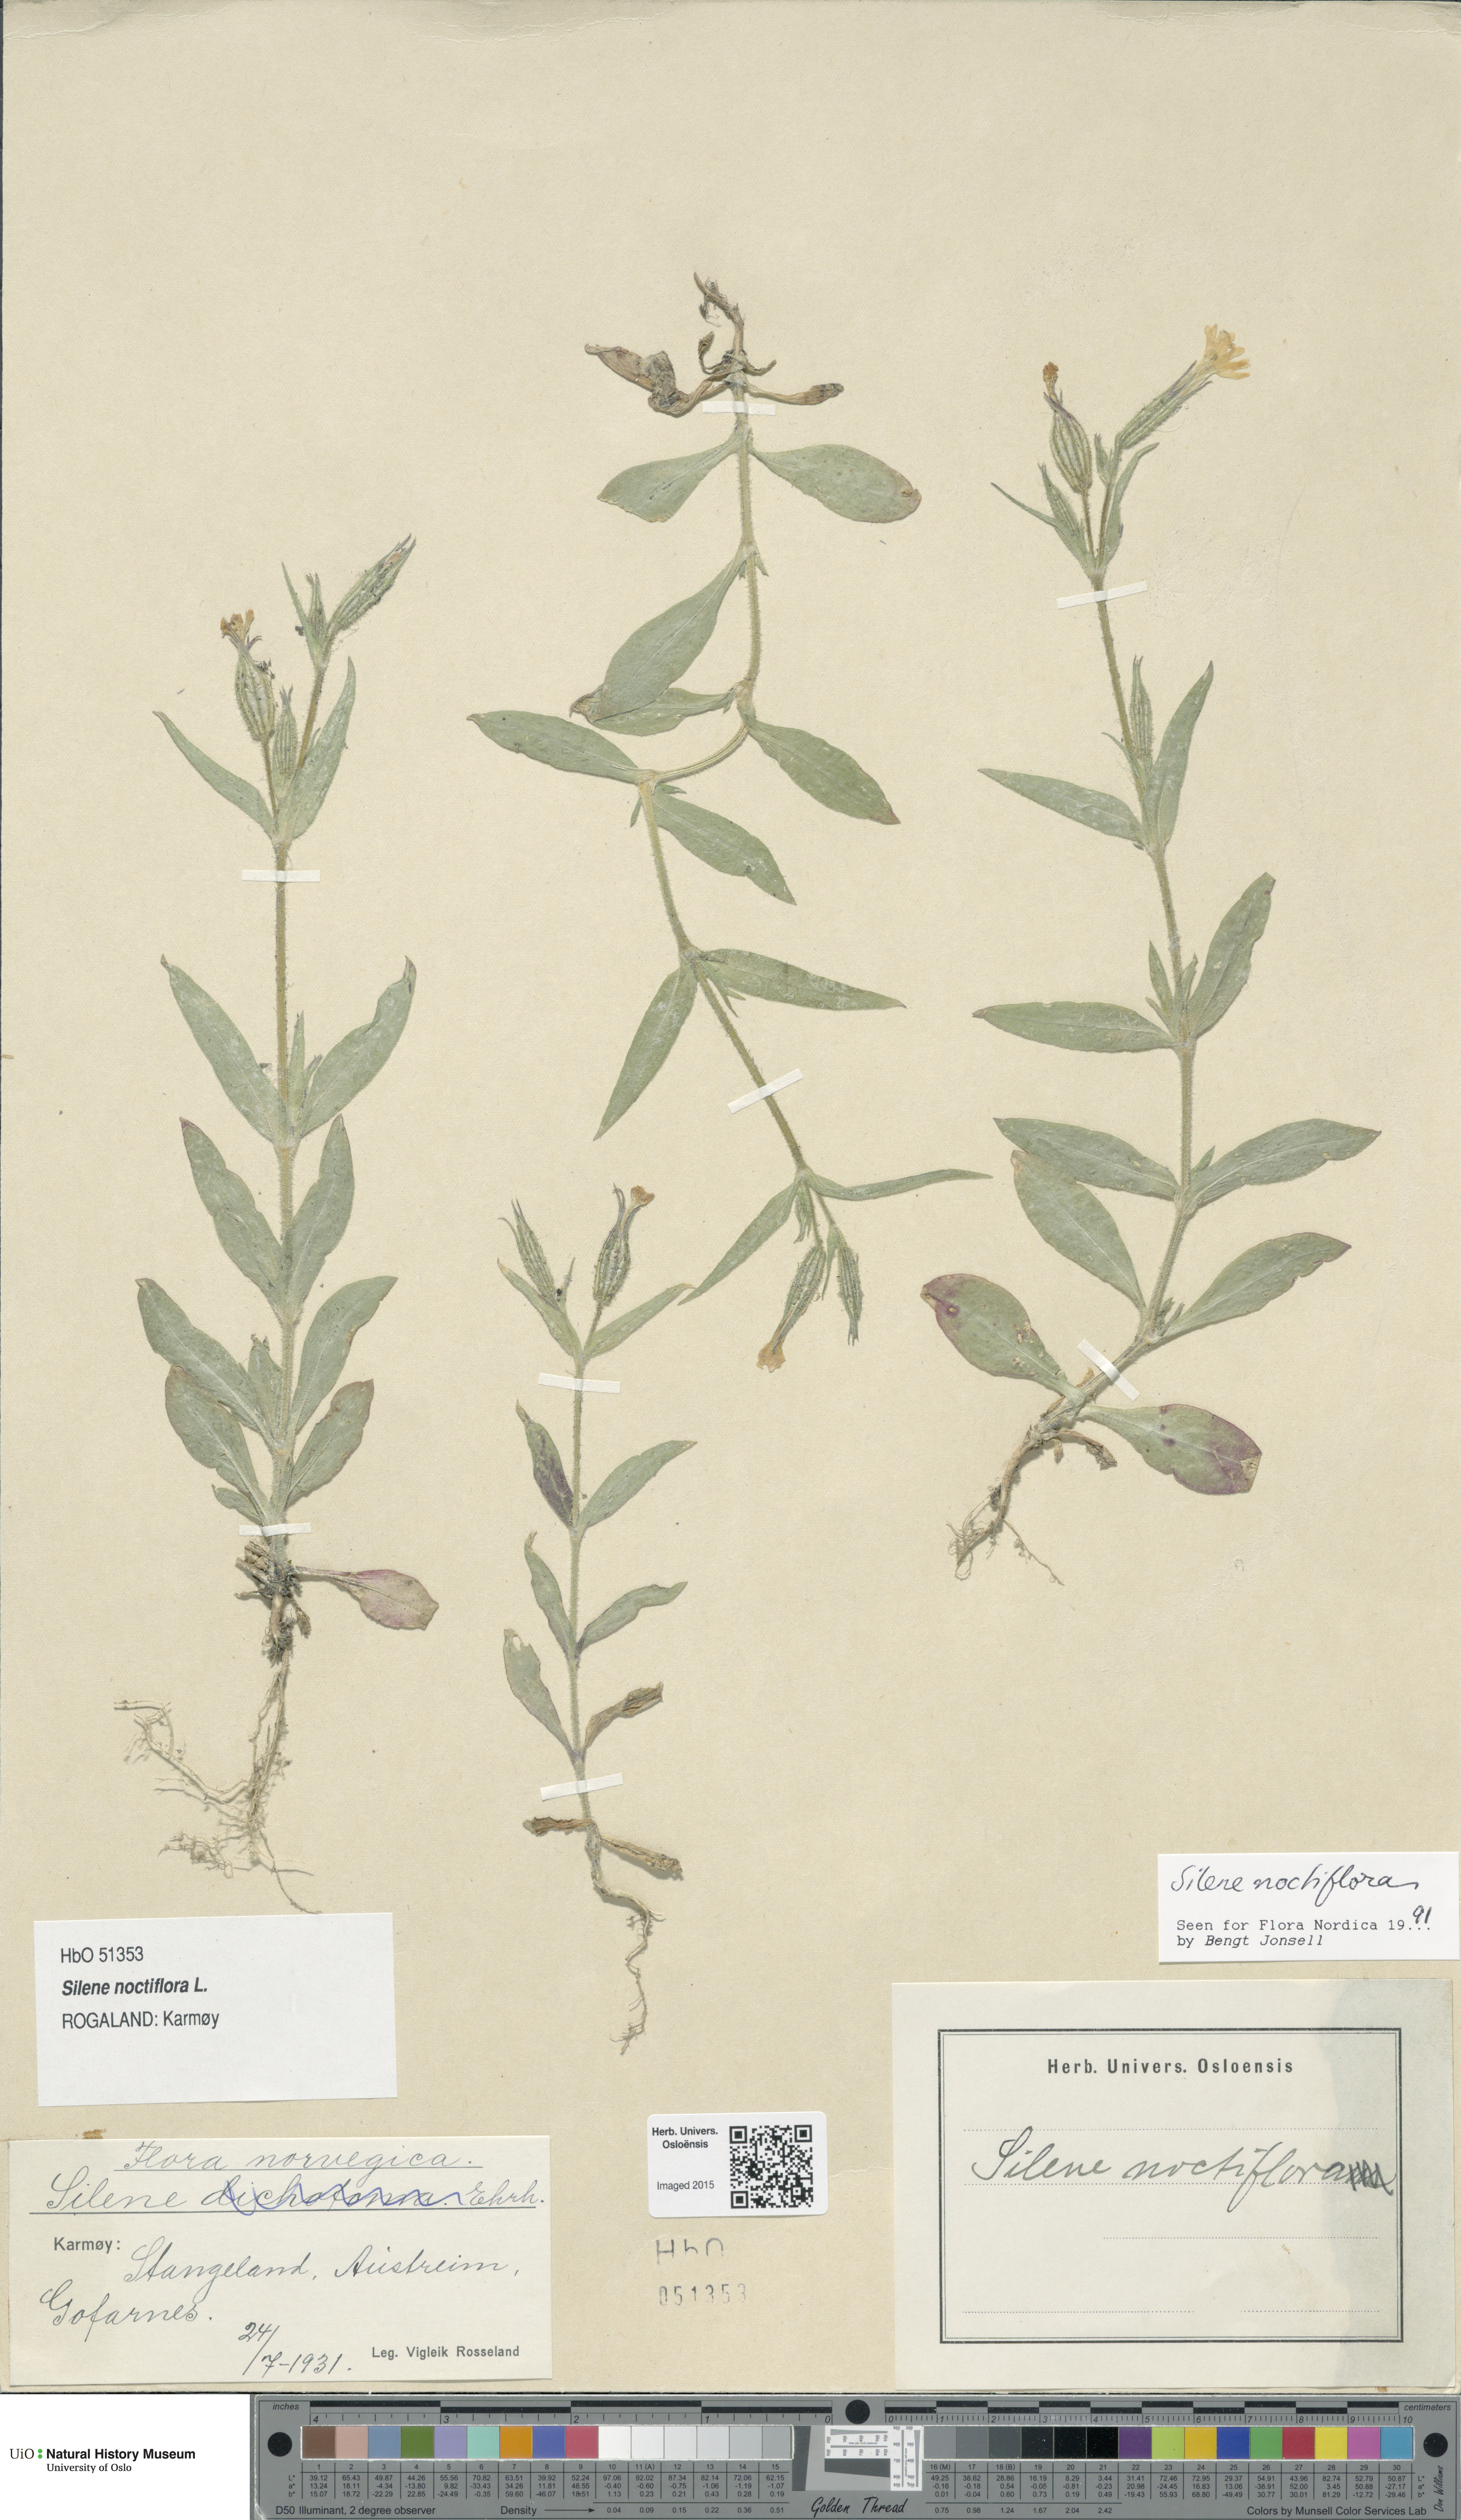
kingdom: Plantae
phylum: Tracheophyta
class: Magnoliopsida
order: Caryophyllales
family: Caryophyllaceae
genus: Silene
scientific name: Silene noctiflora
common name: Night-flowering catchfly
